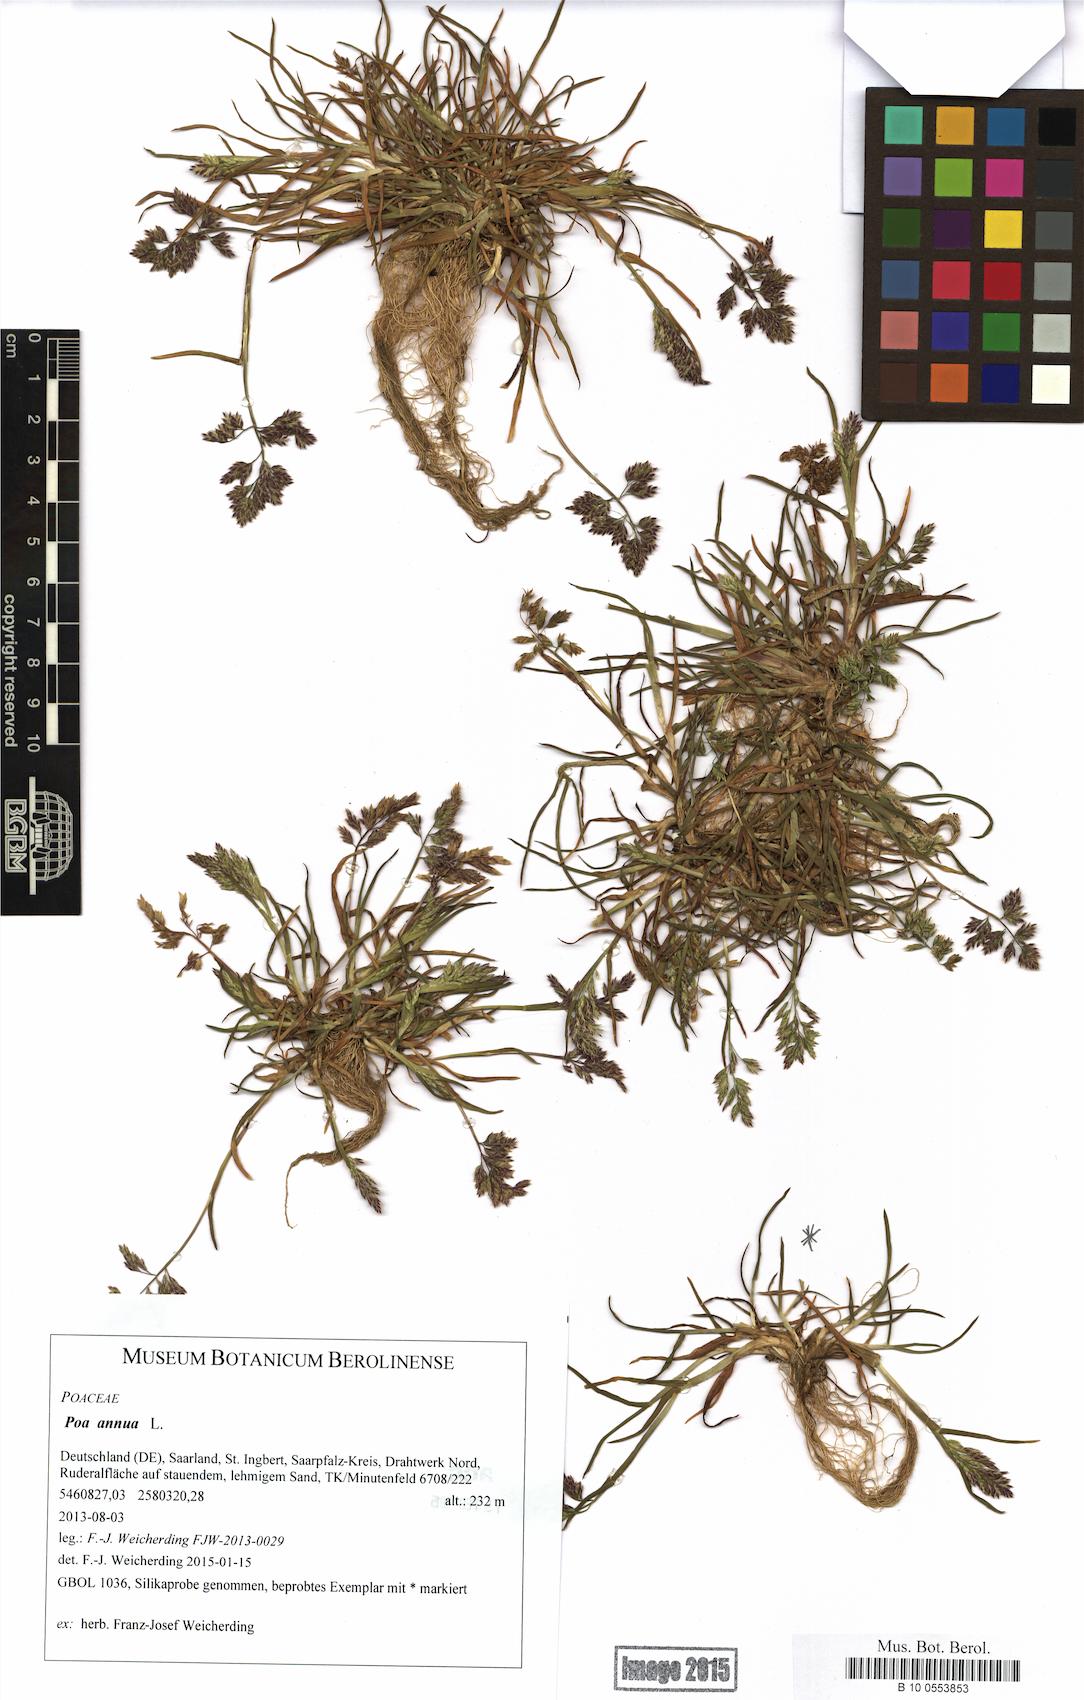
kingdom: Plantae
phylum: Tracheophyta
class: Liliopsida
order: Poales
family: Poaceae
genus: Poa
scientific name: Poa annua
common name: Annual bluegrass
